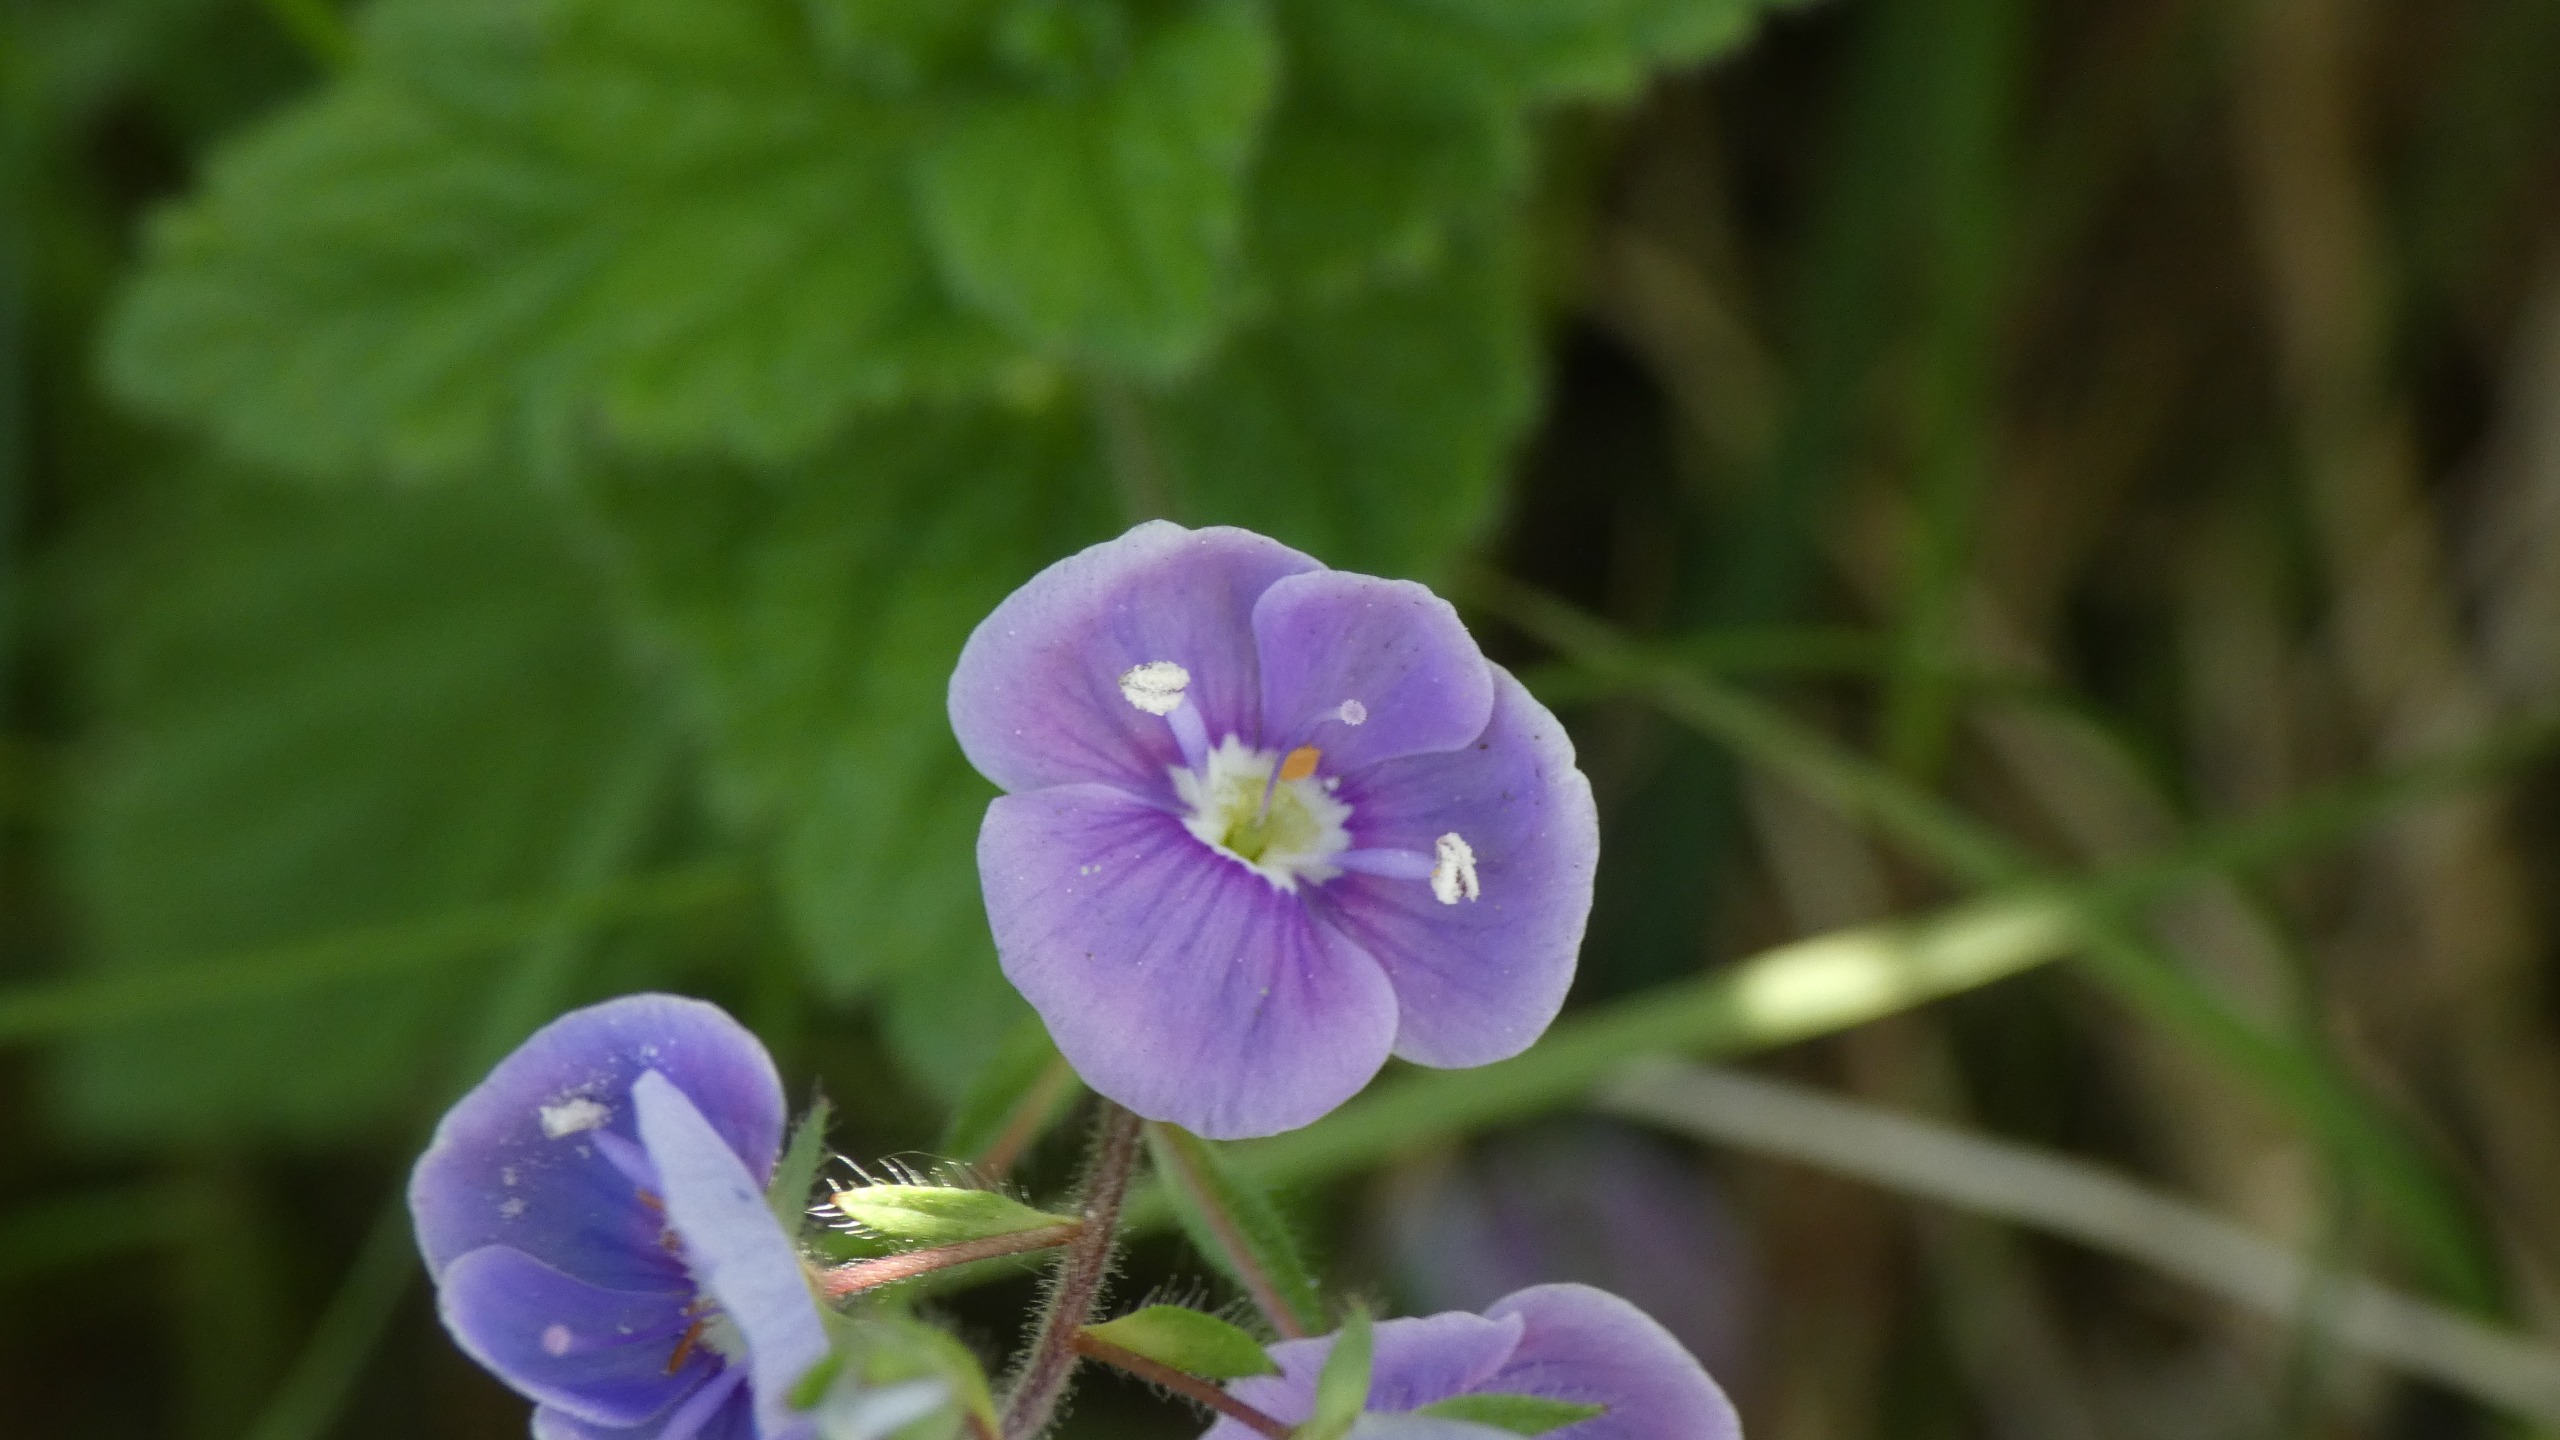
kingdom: Plantae
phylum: Tracheophyta
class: Magnoliopsida
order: Lamiales
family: Plantaginaceae
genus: Veronica
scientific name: Veronica chamaedrys
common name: Tveskægget ærenpris
